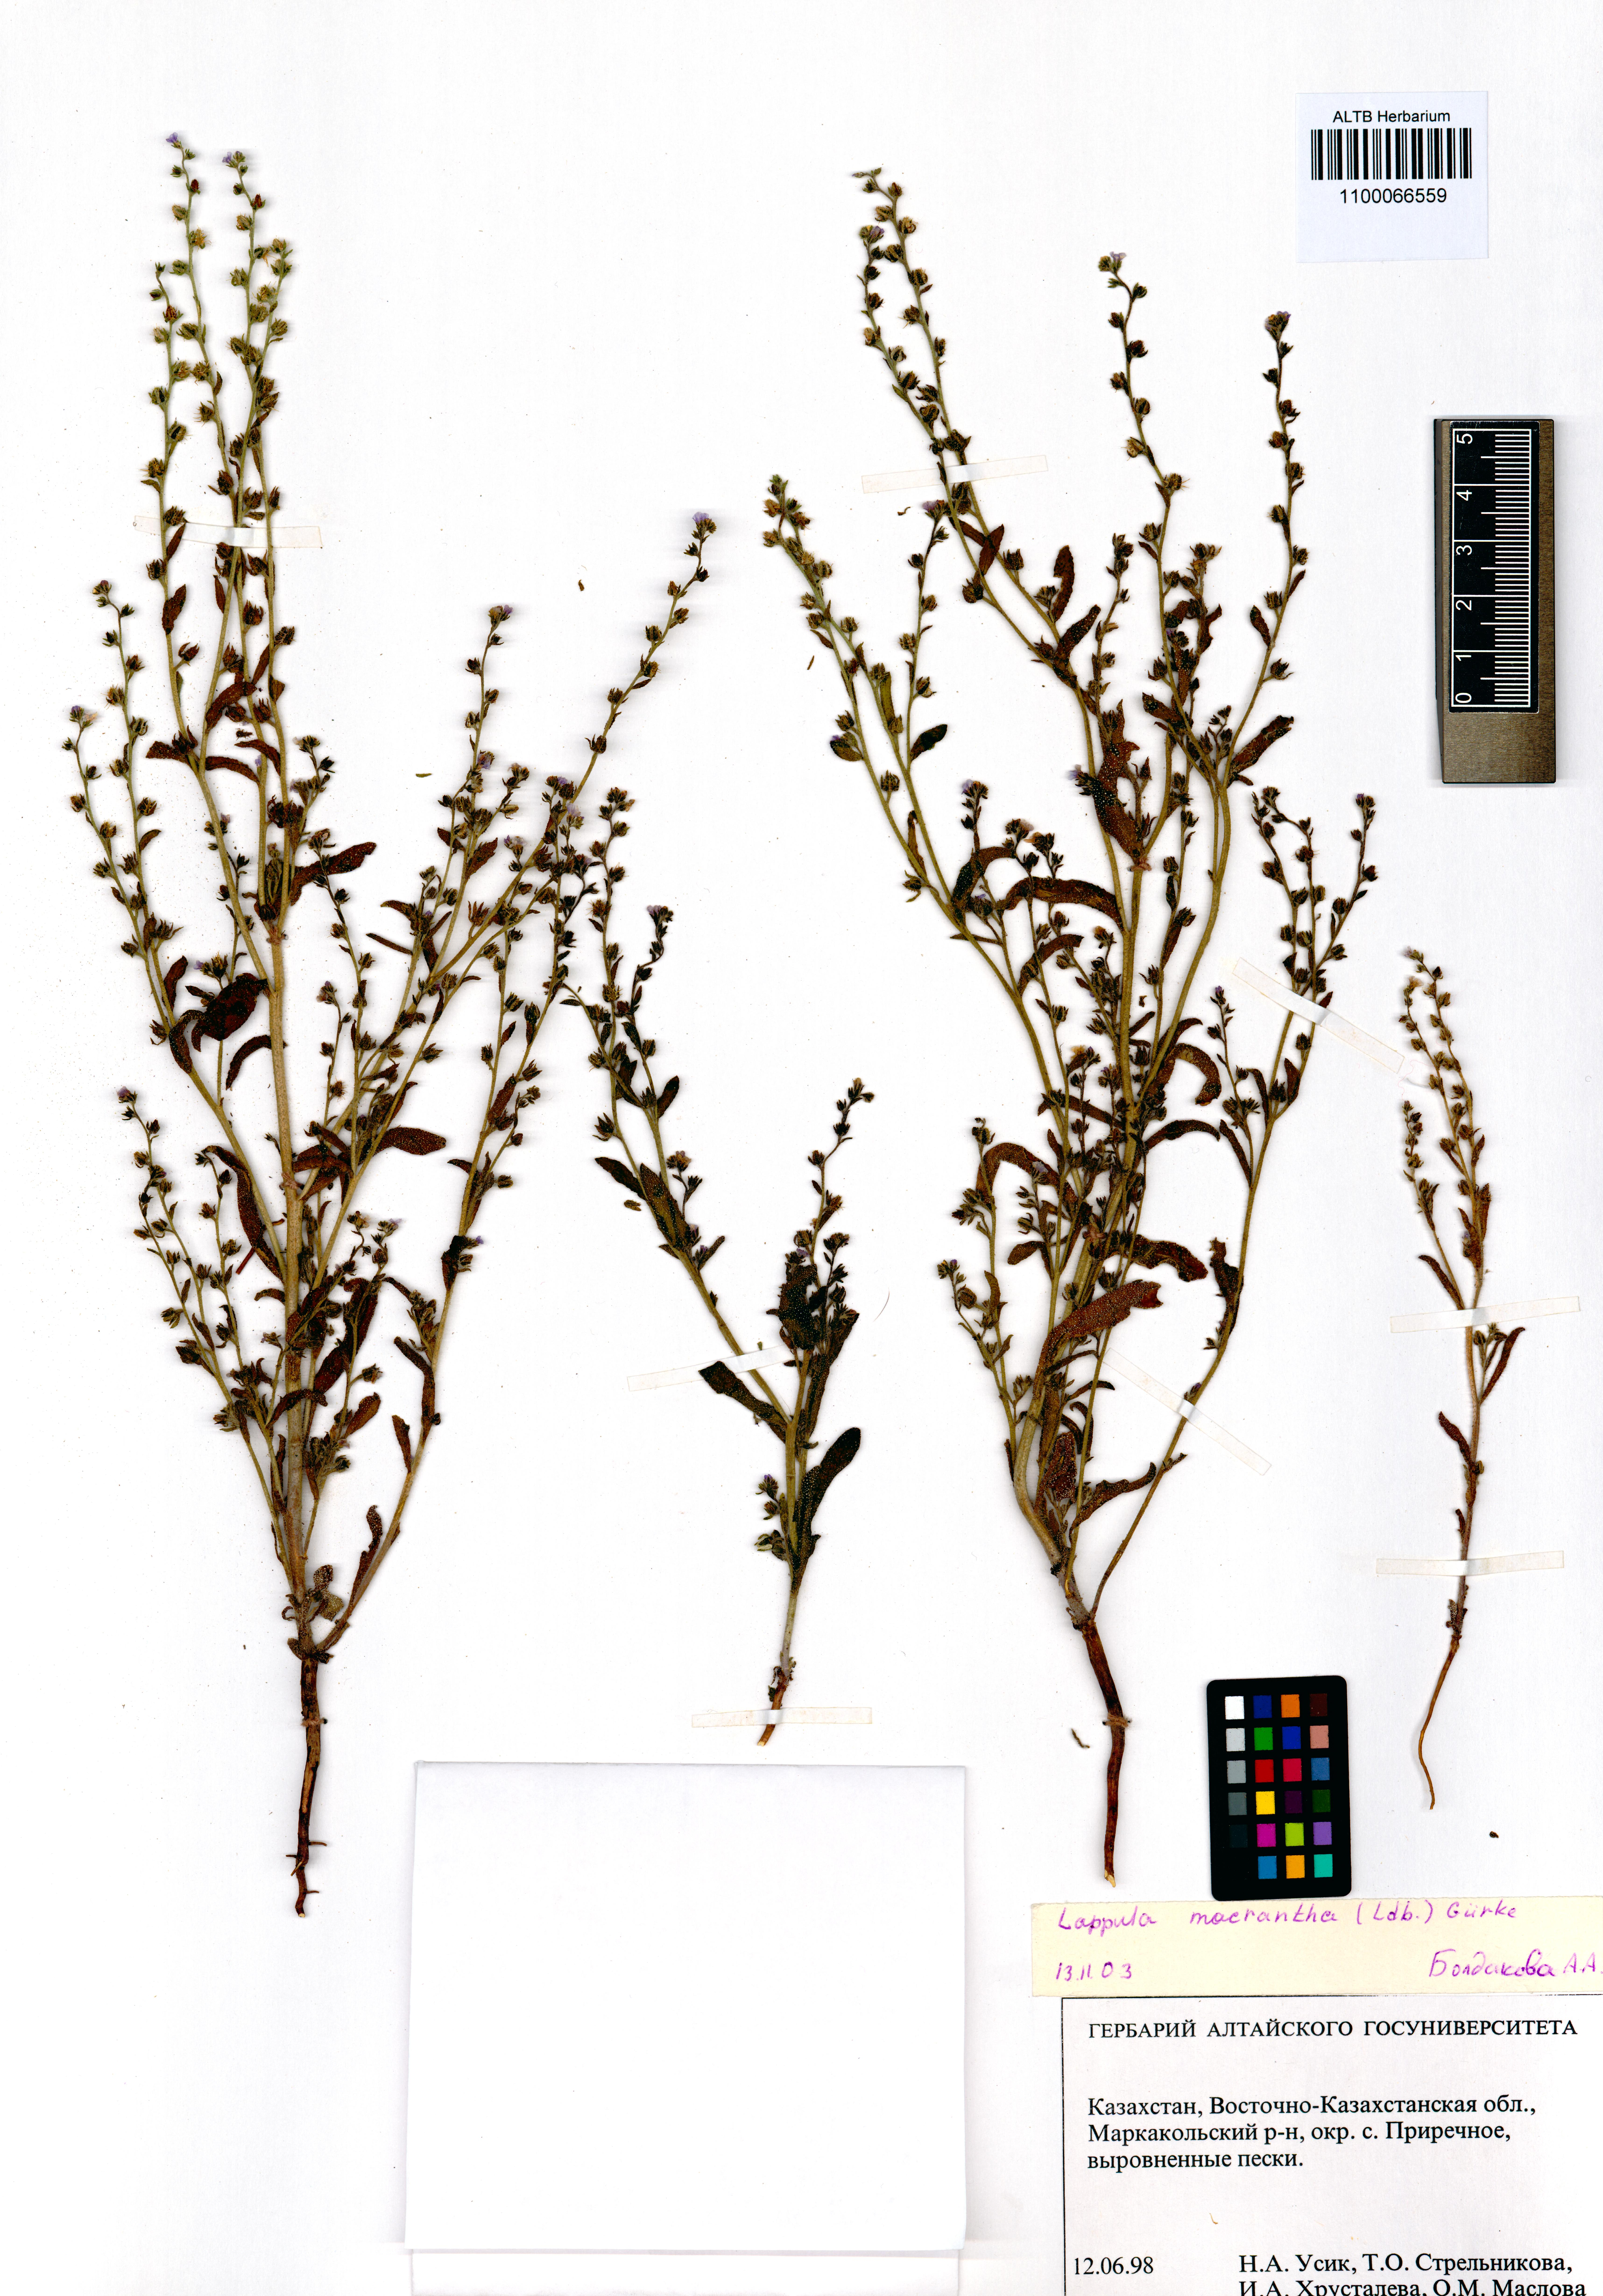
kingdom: Plantae
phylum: Tracheophyta
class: Magnoliopsida
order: Boraginales
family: Boraginaceae
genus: Lappula
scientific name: Lappula macrantha
